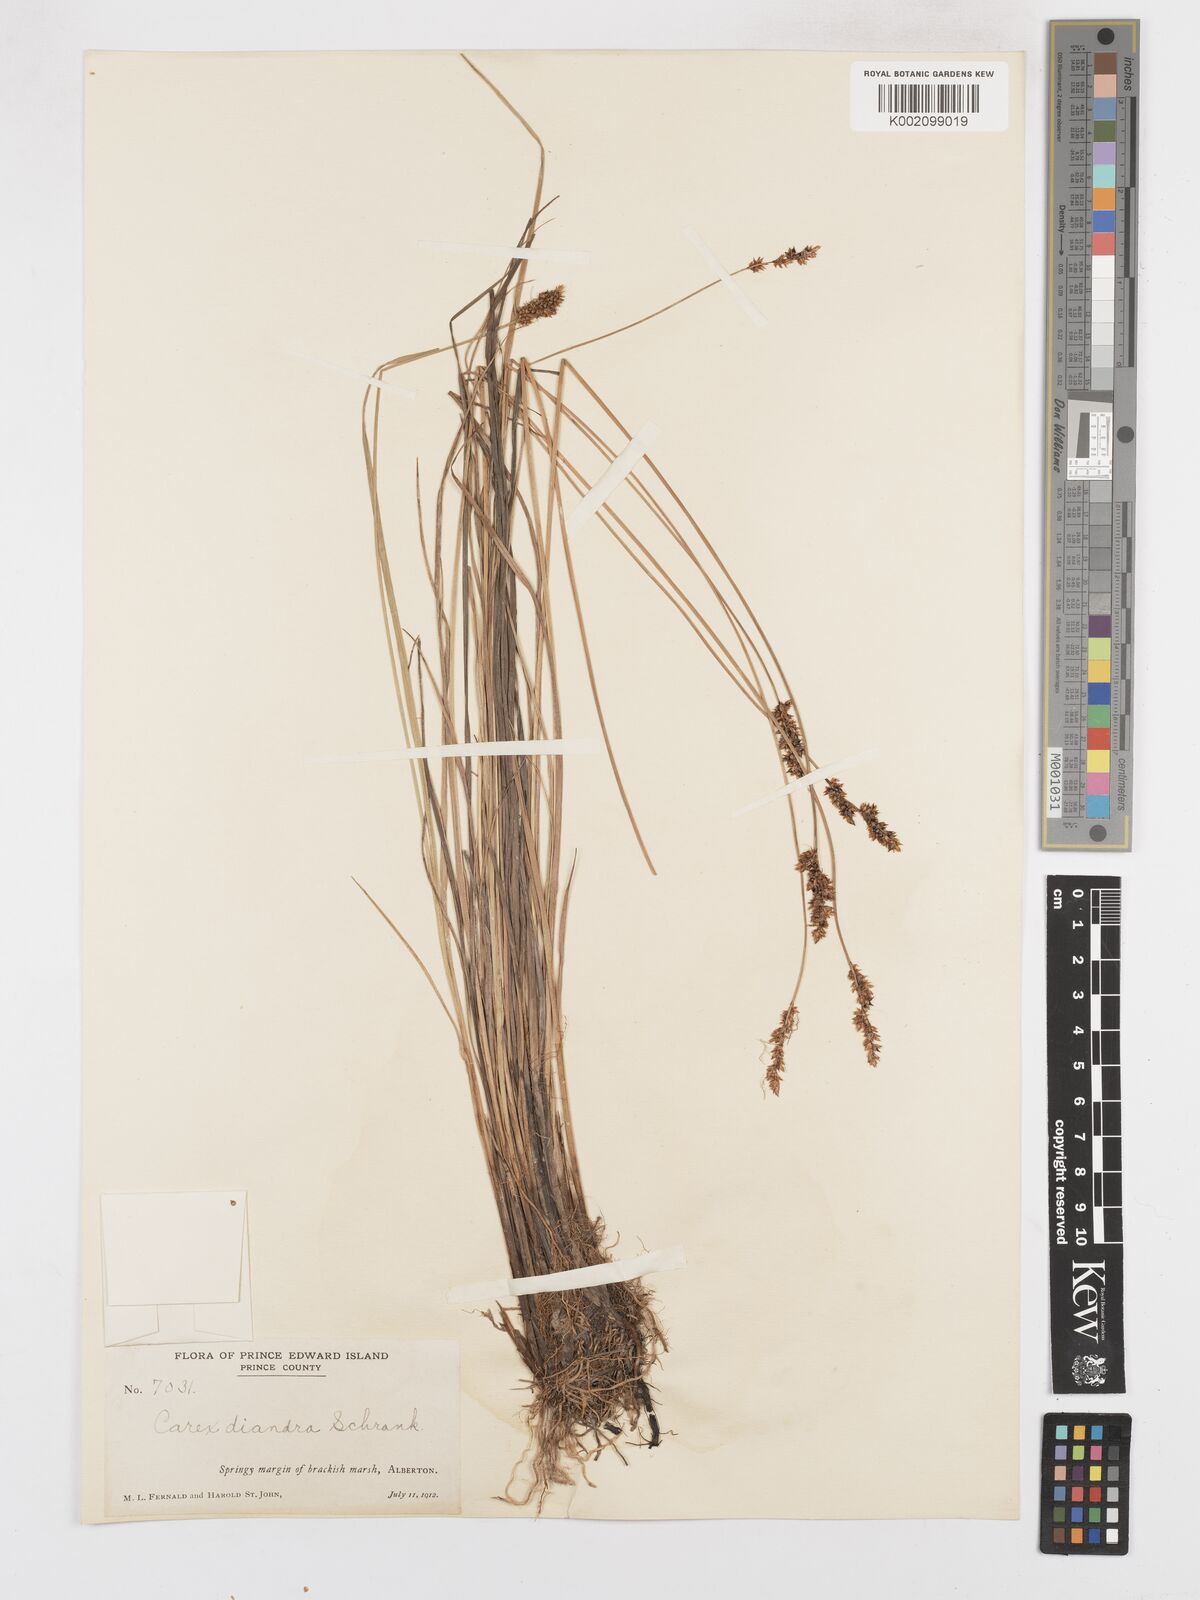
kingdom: Plantae
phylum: Tracheophyta
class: Liliopsida
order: Poales
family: Cyperaceae
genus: Carex
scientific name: Carex diandra
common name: Lesser tussock-sedge
